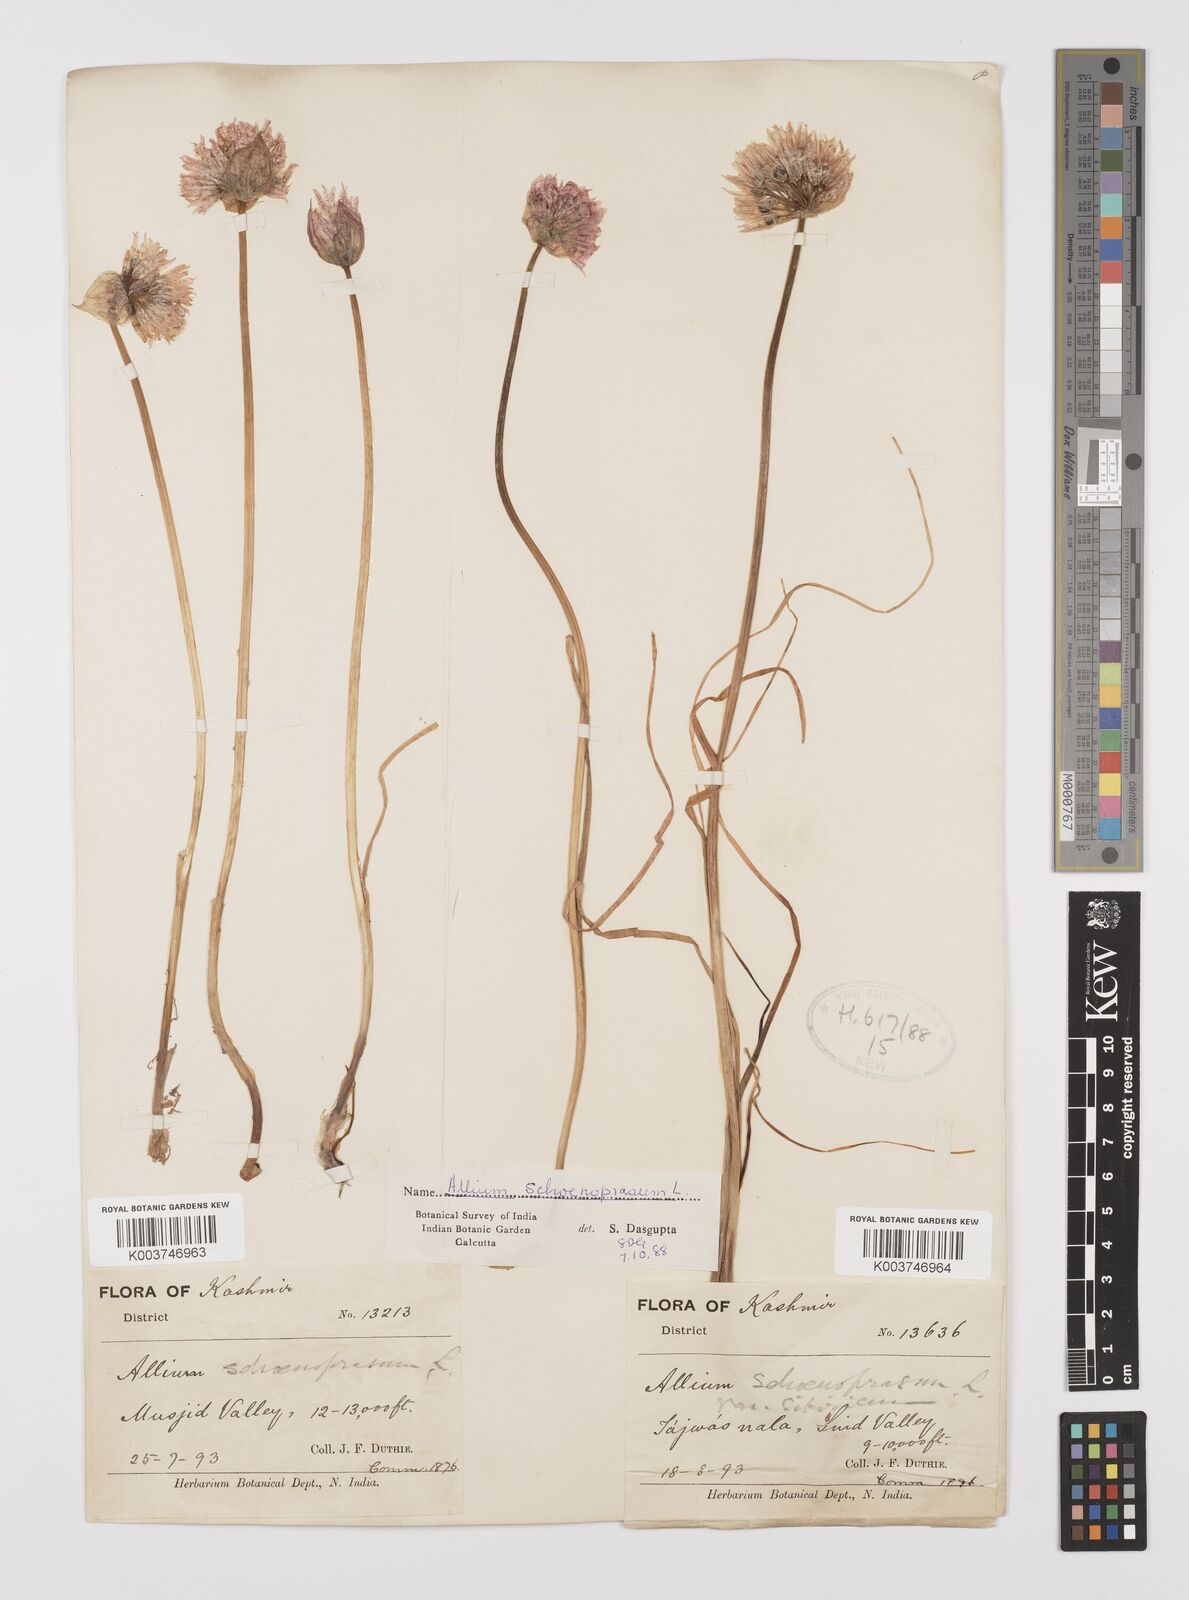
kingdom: Plantae
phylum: Tracheophyta
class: Liliopsida
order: Asparagales
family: Amaryllidaceae
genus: Allium
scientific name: Allium schoenoprasum
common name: Chives
